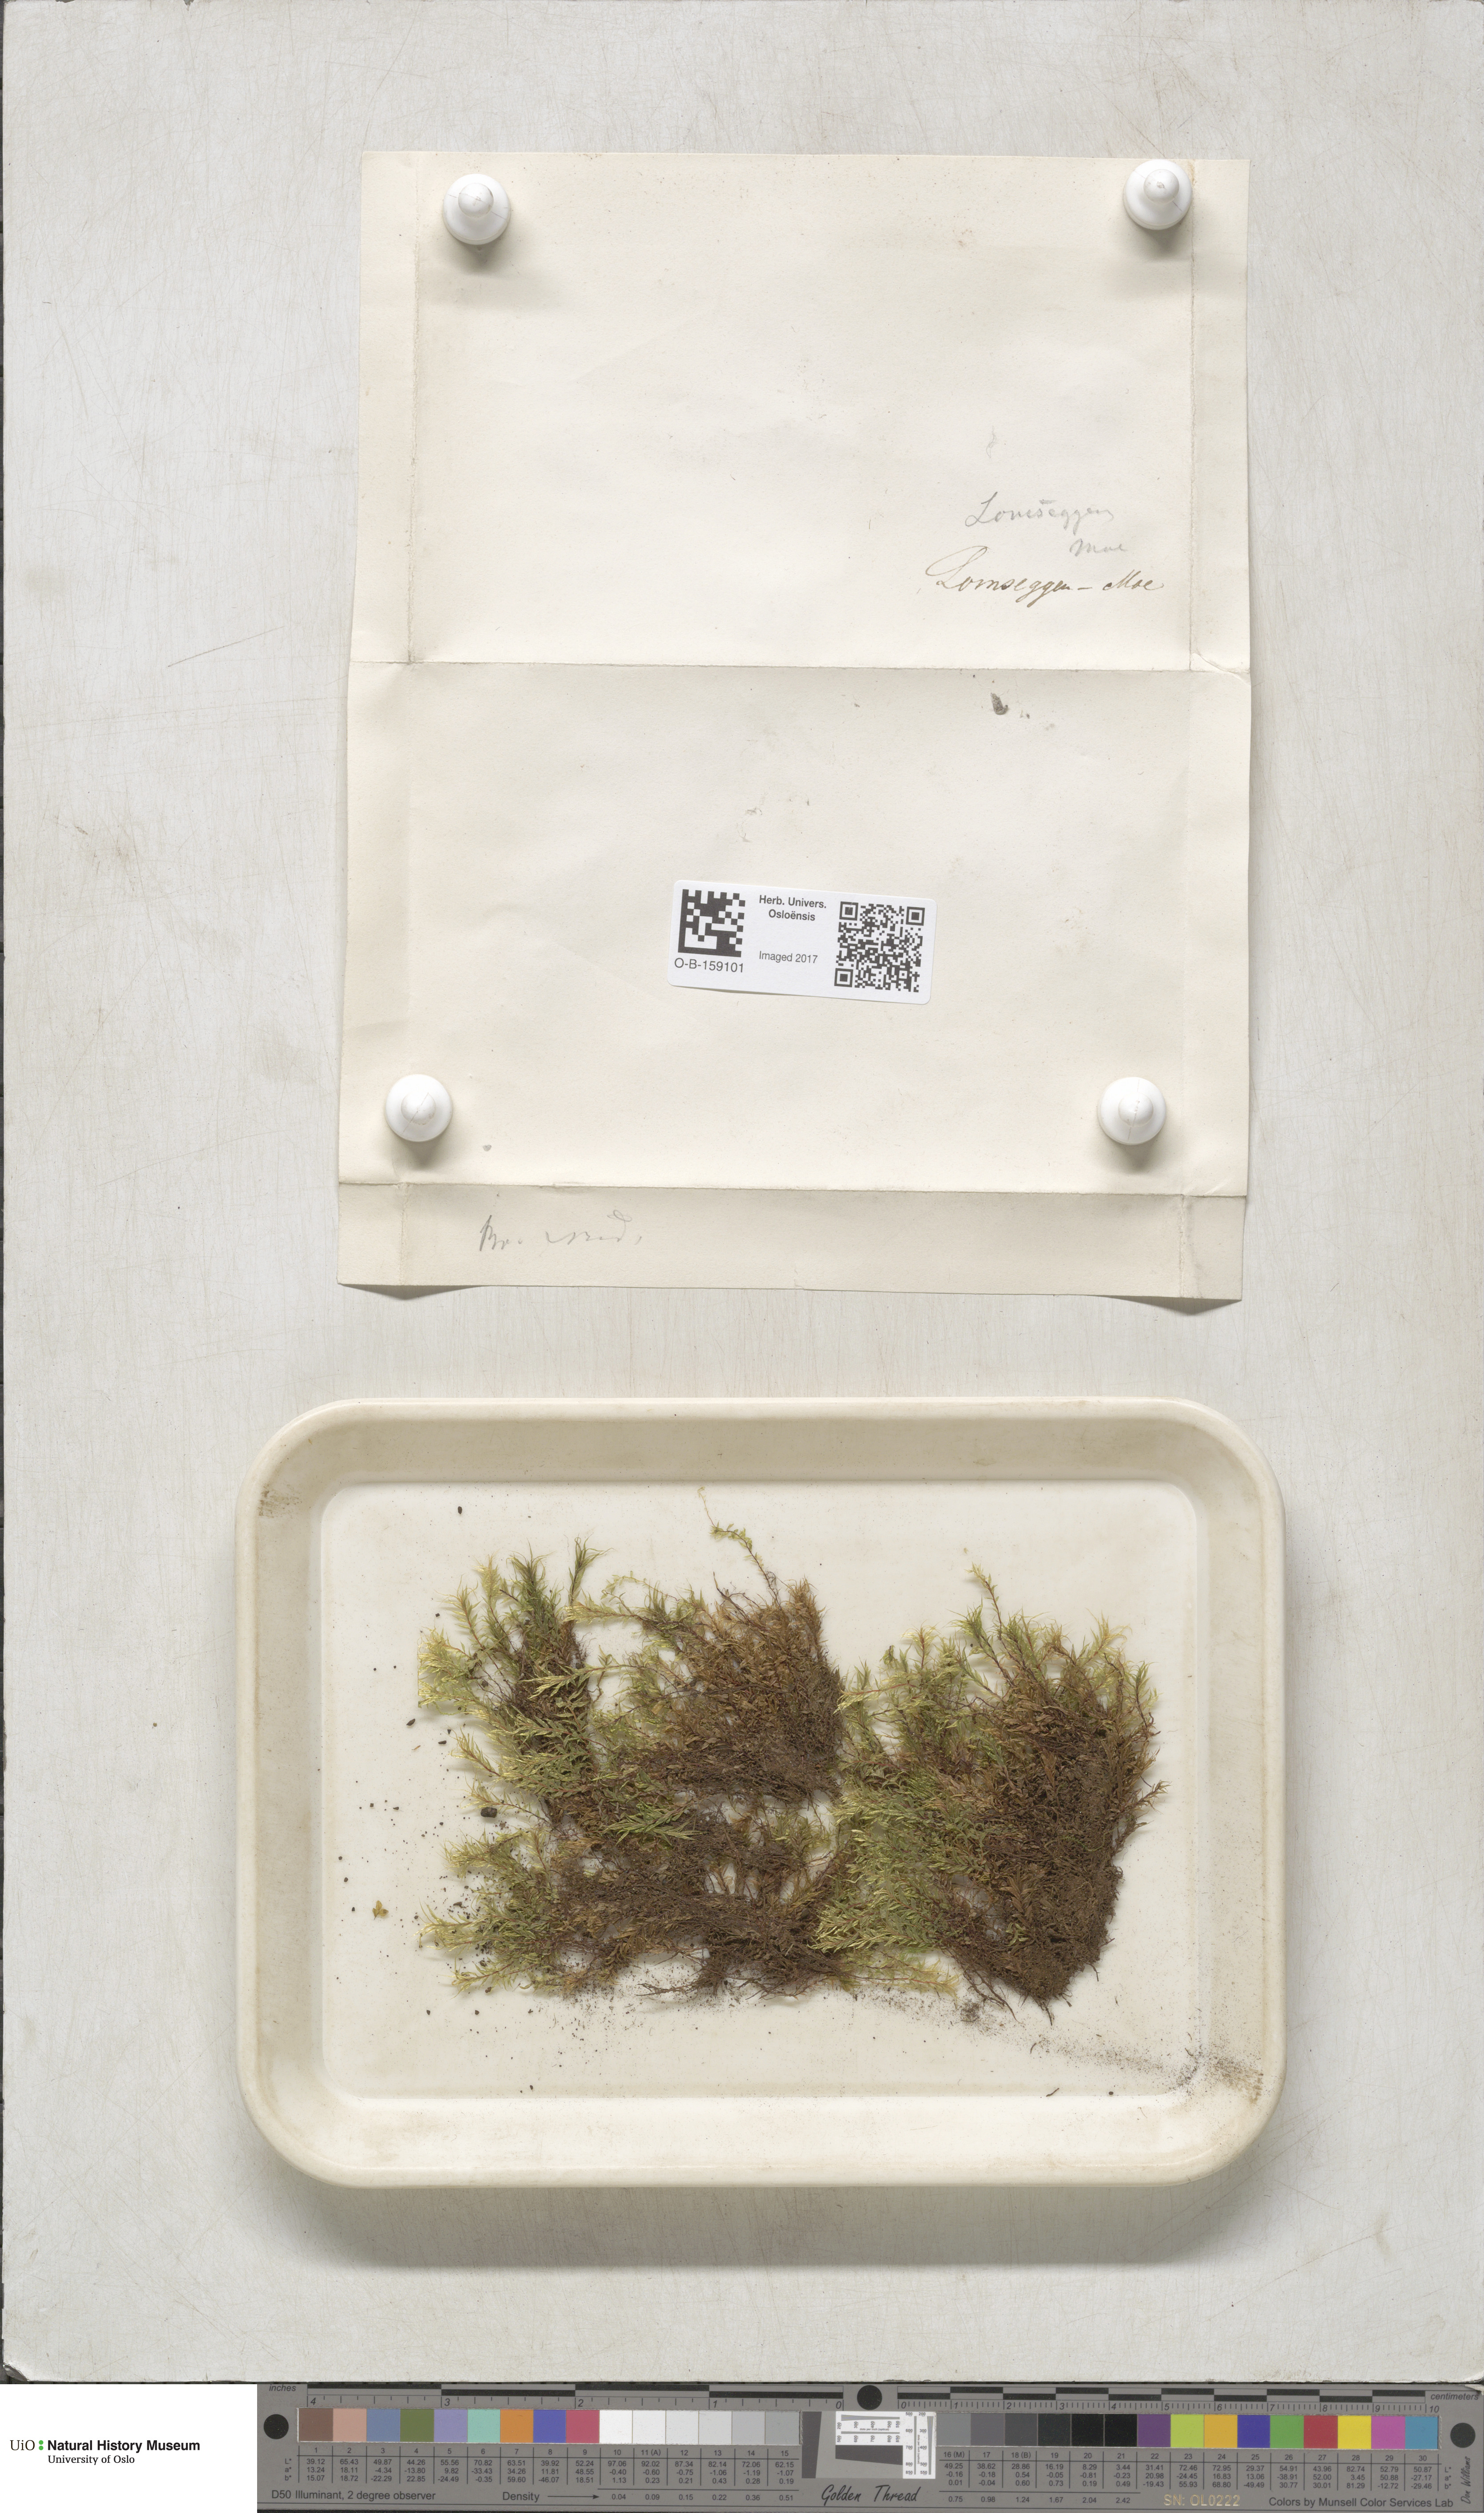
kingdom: Plantae
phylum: Bryophyta
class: Bryopsida
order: Bryales
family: Mniaceae
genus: Pohlia
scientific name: Pohlia cruda
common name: Opal nodding moss
